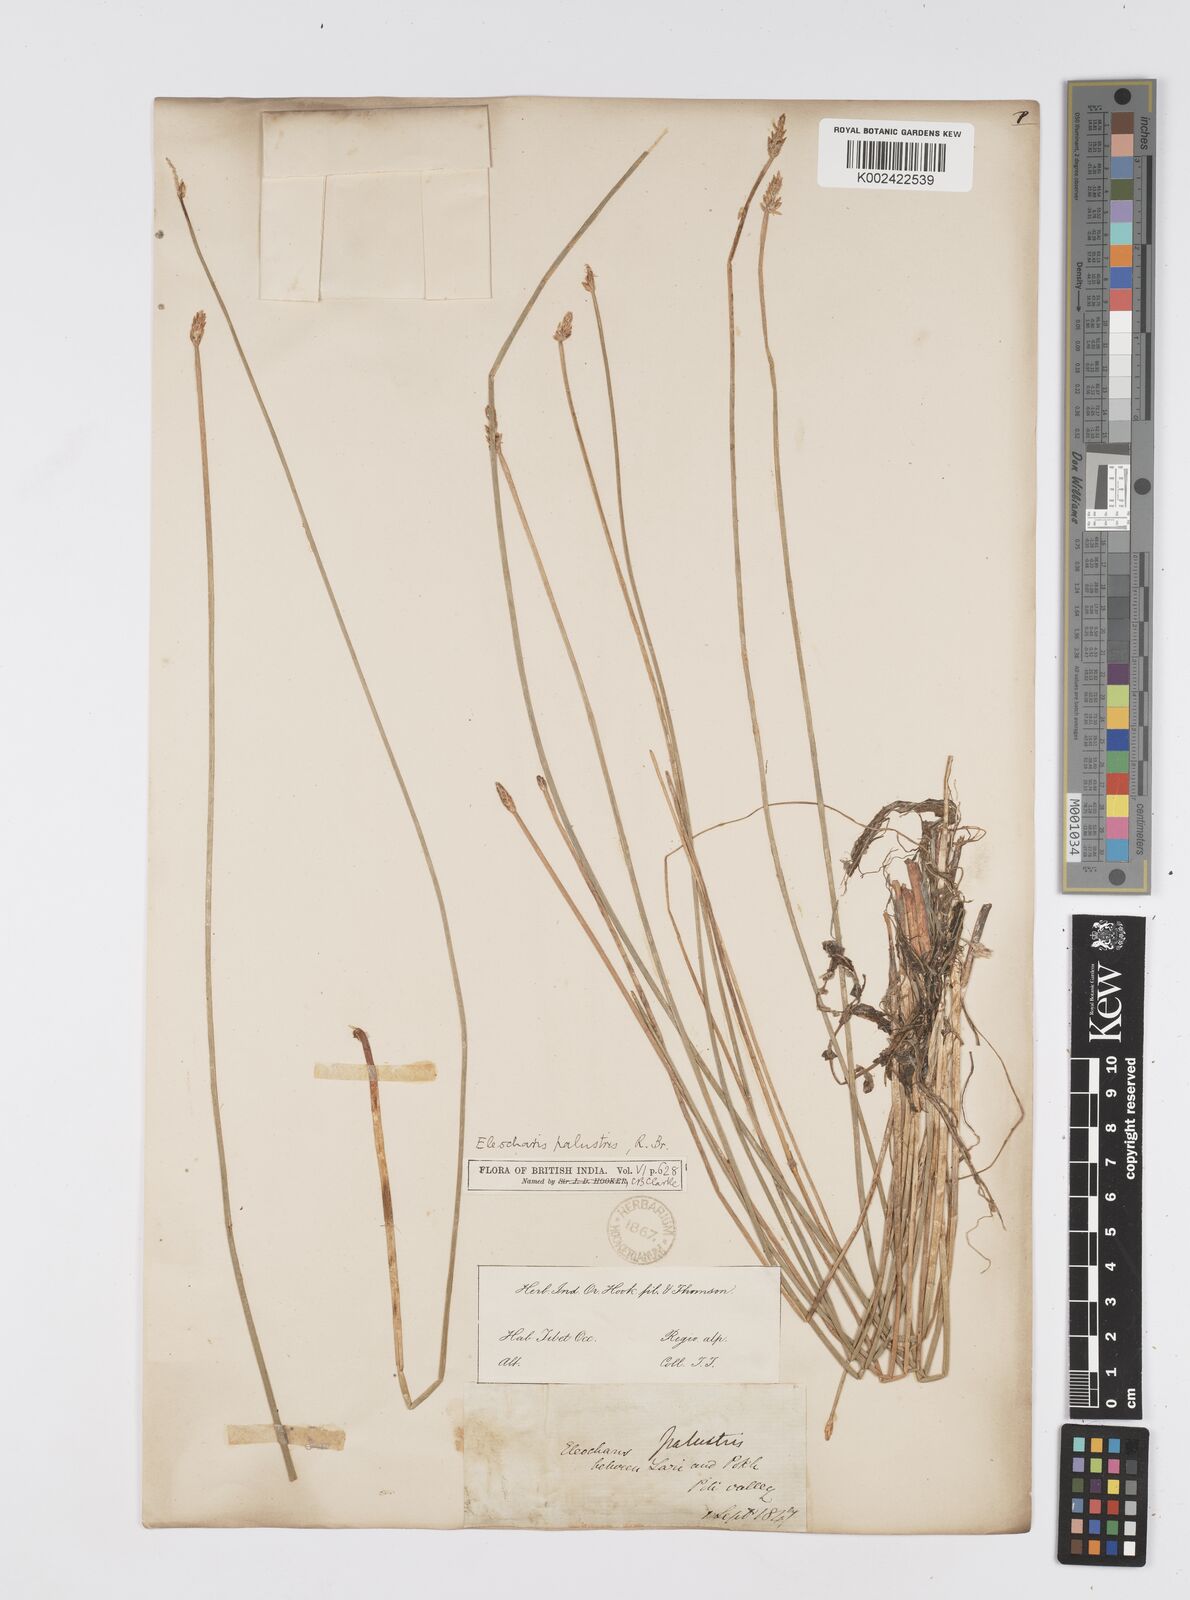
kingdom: Plantae
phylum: Tracheophyta
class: Liliopsida
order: Poales
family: Cyperaceae
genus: Eleocharis
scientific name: Eleocharis palustris
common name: Common spike-rush
